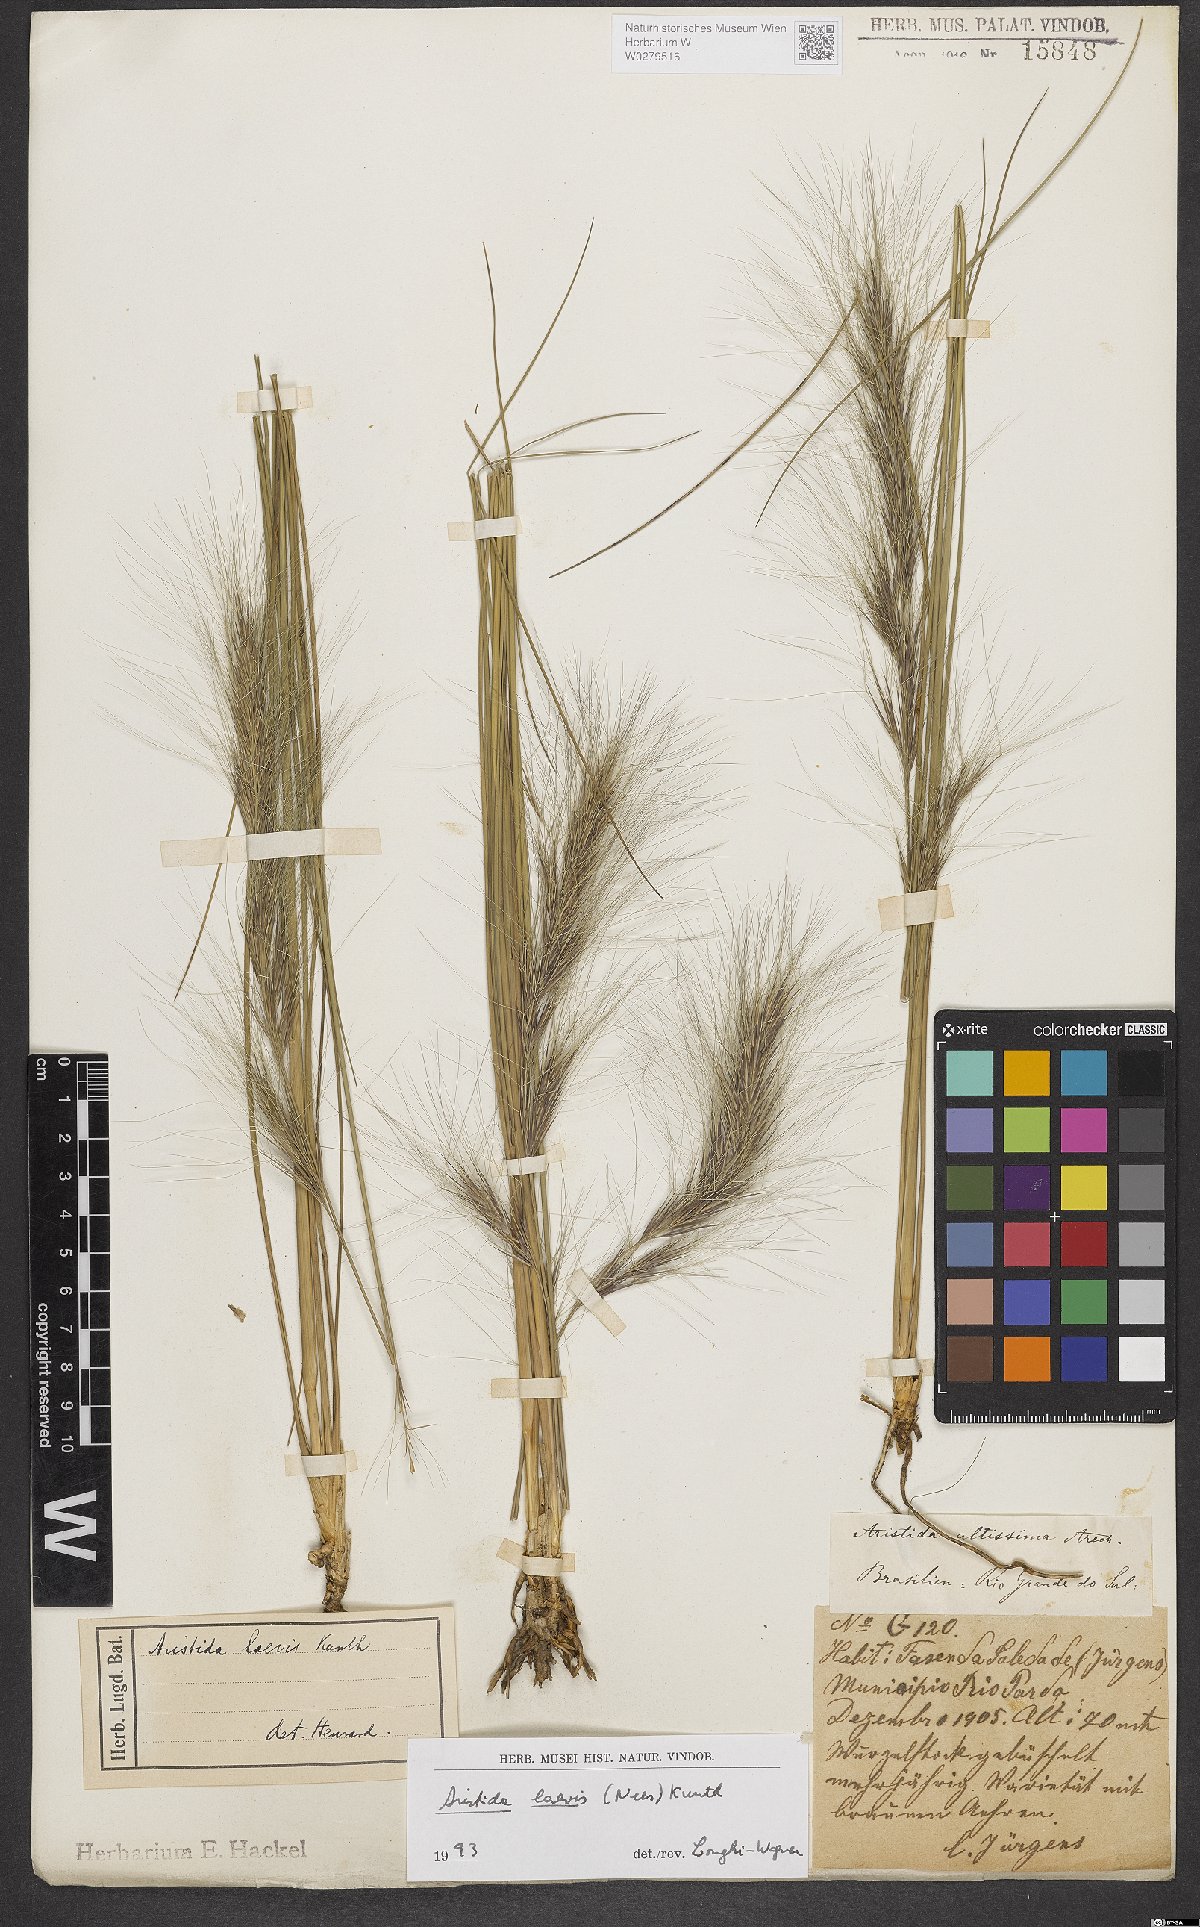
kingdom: Plantae
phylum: Tracheophyta
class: Liliopsida
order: Poales
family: Poaceae
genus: Aristida
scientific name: Aristida pallens
